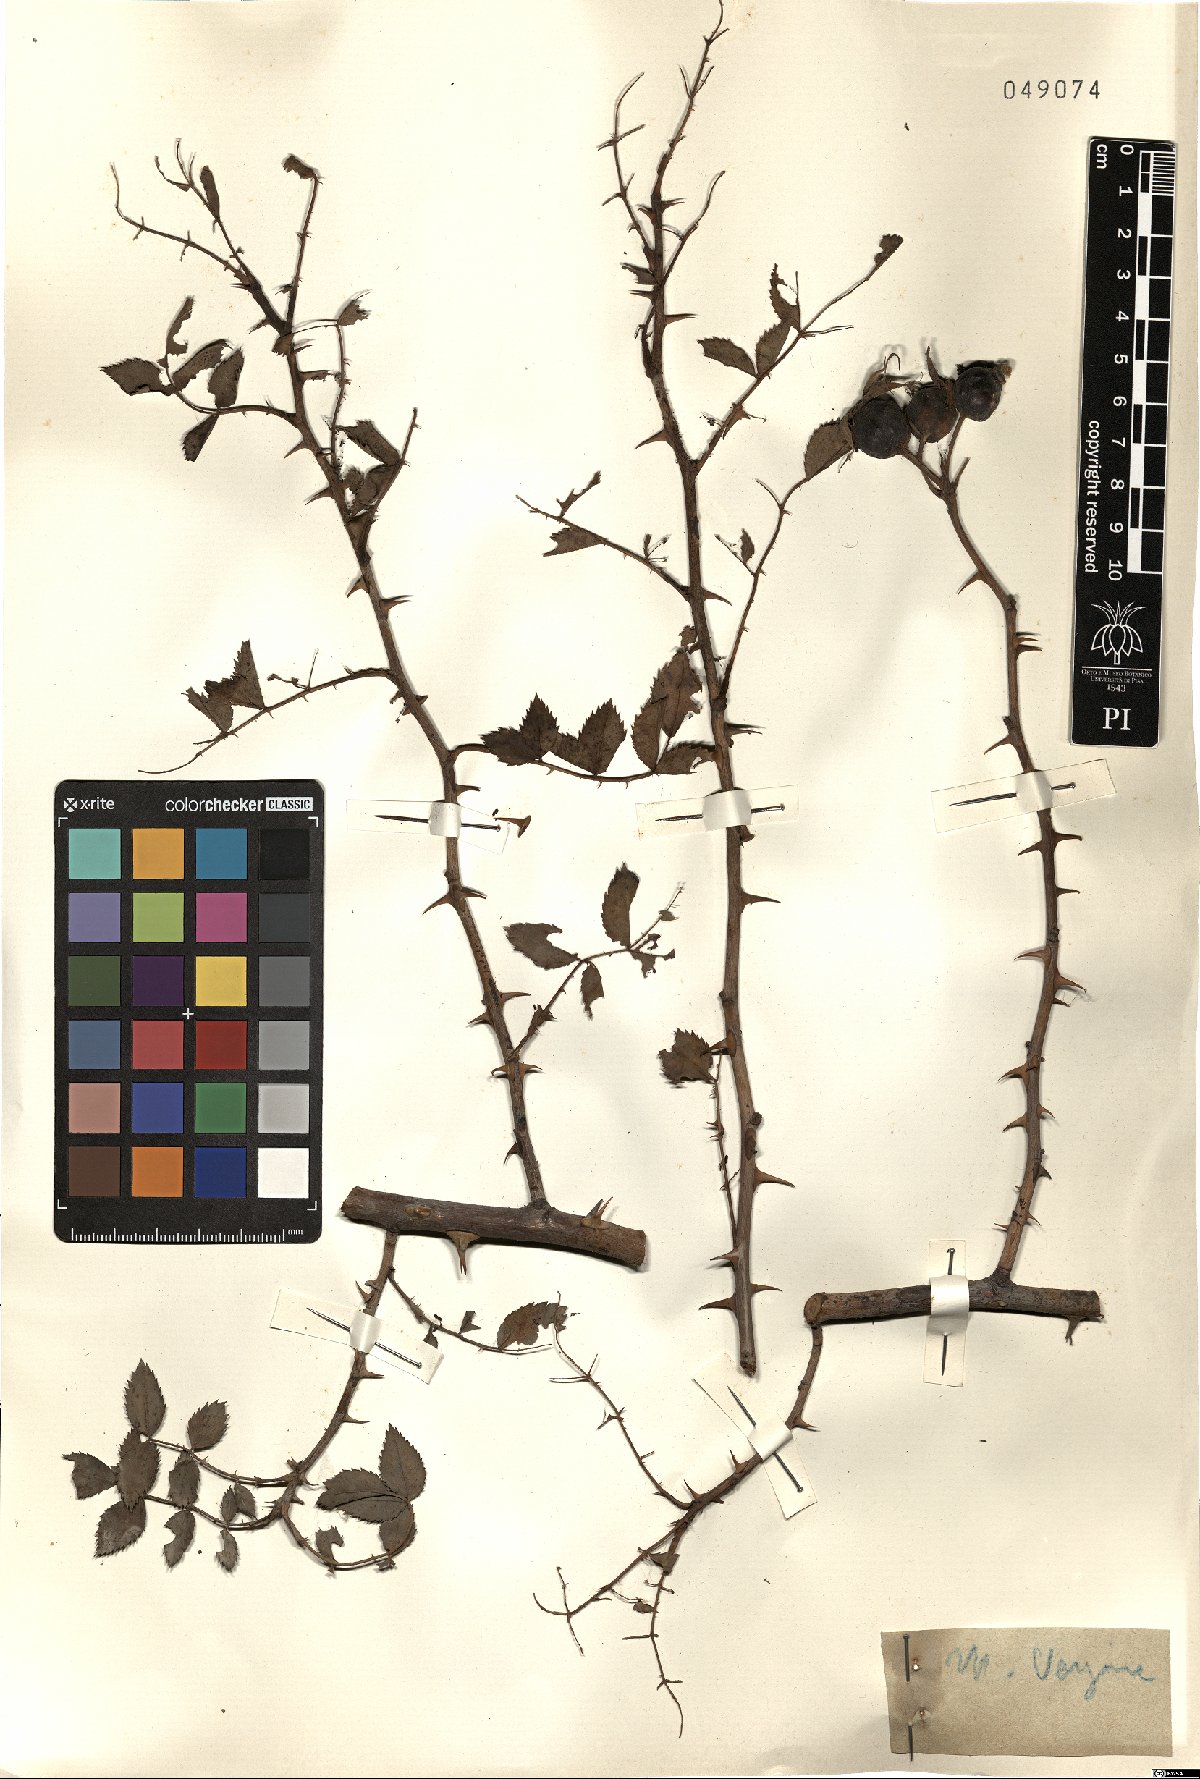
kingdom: Plantae
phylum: Tracheophyta
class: Magnoliopsida
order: Rosales
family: Rosaceae
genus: Rosa
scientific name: Rosa
